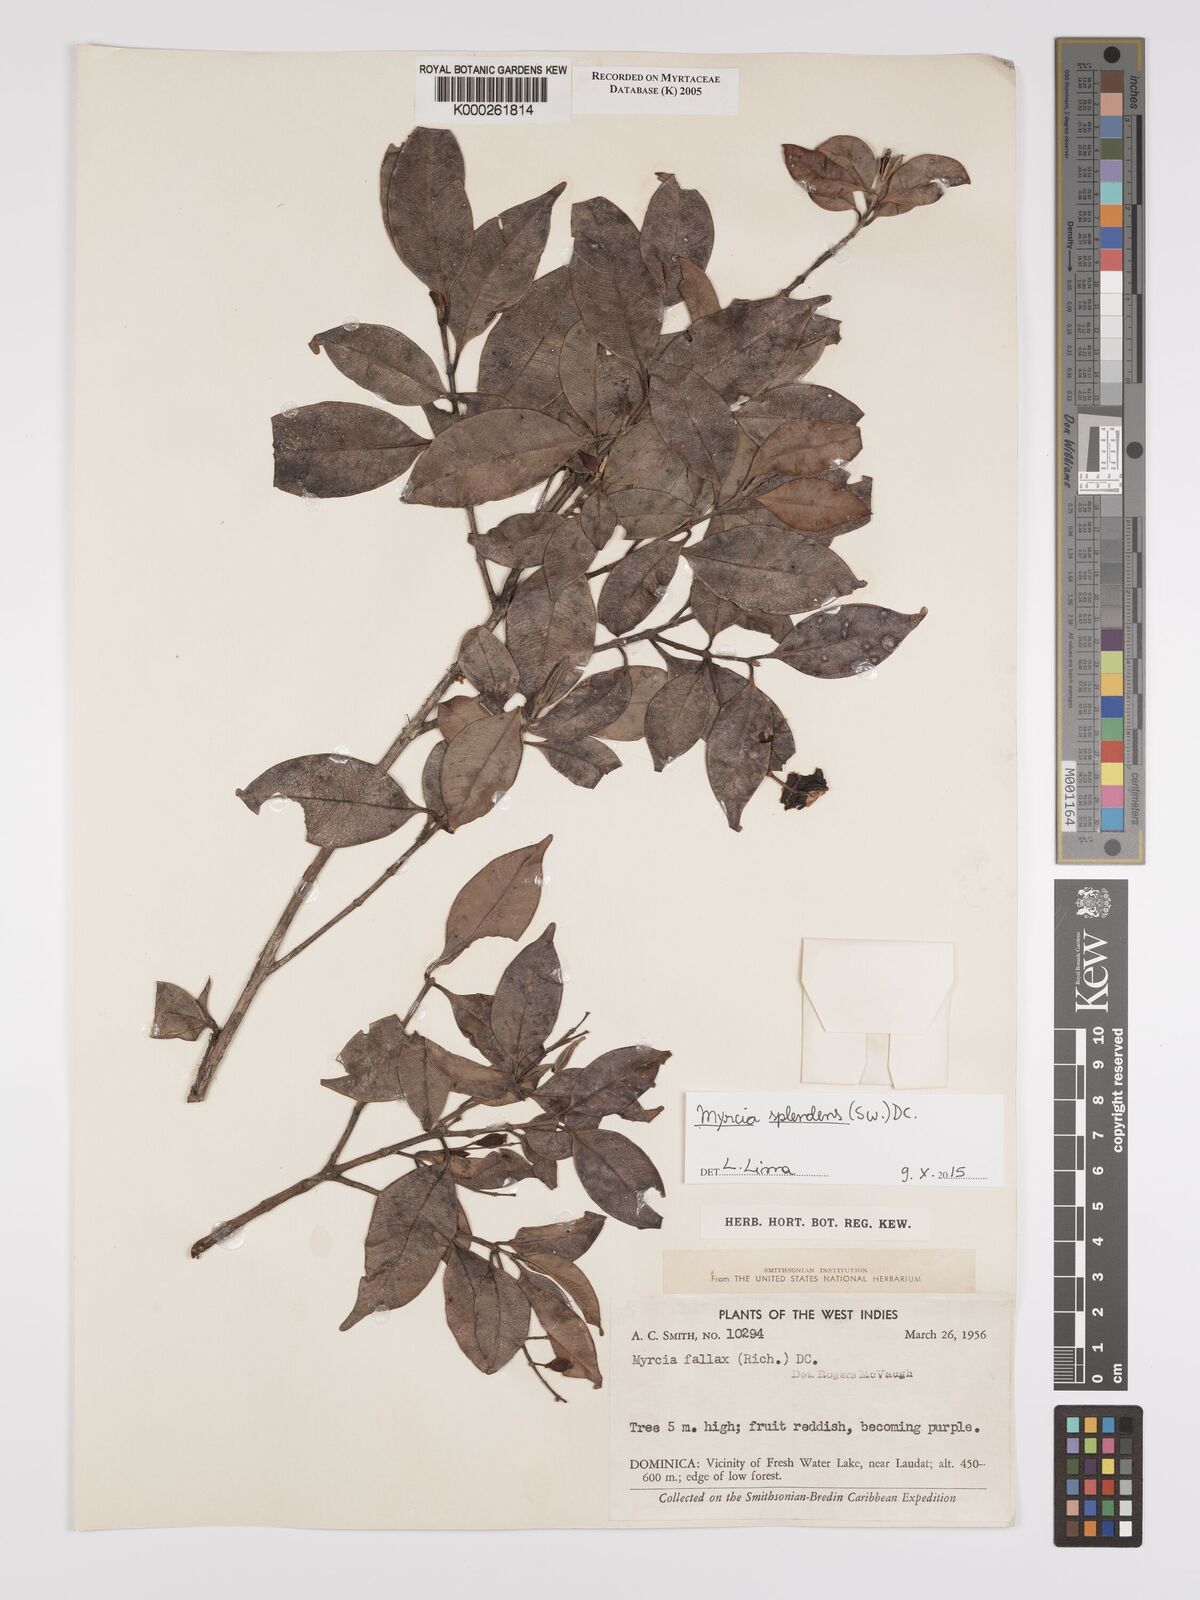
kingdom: Plantae
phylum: Tracheophyta
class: Magnoliopsida
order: Myrtales
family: Myrtaceae
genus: Myrcia
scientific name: Myrcia splendens
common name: Surinam cherry
